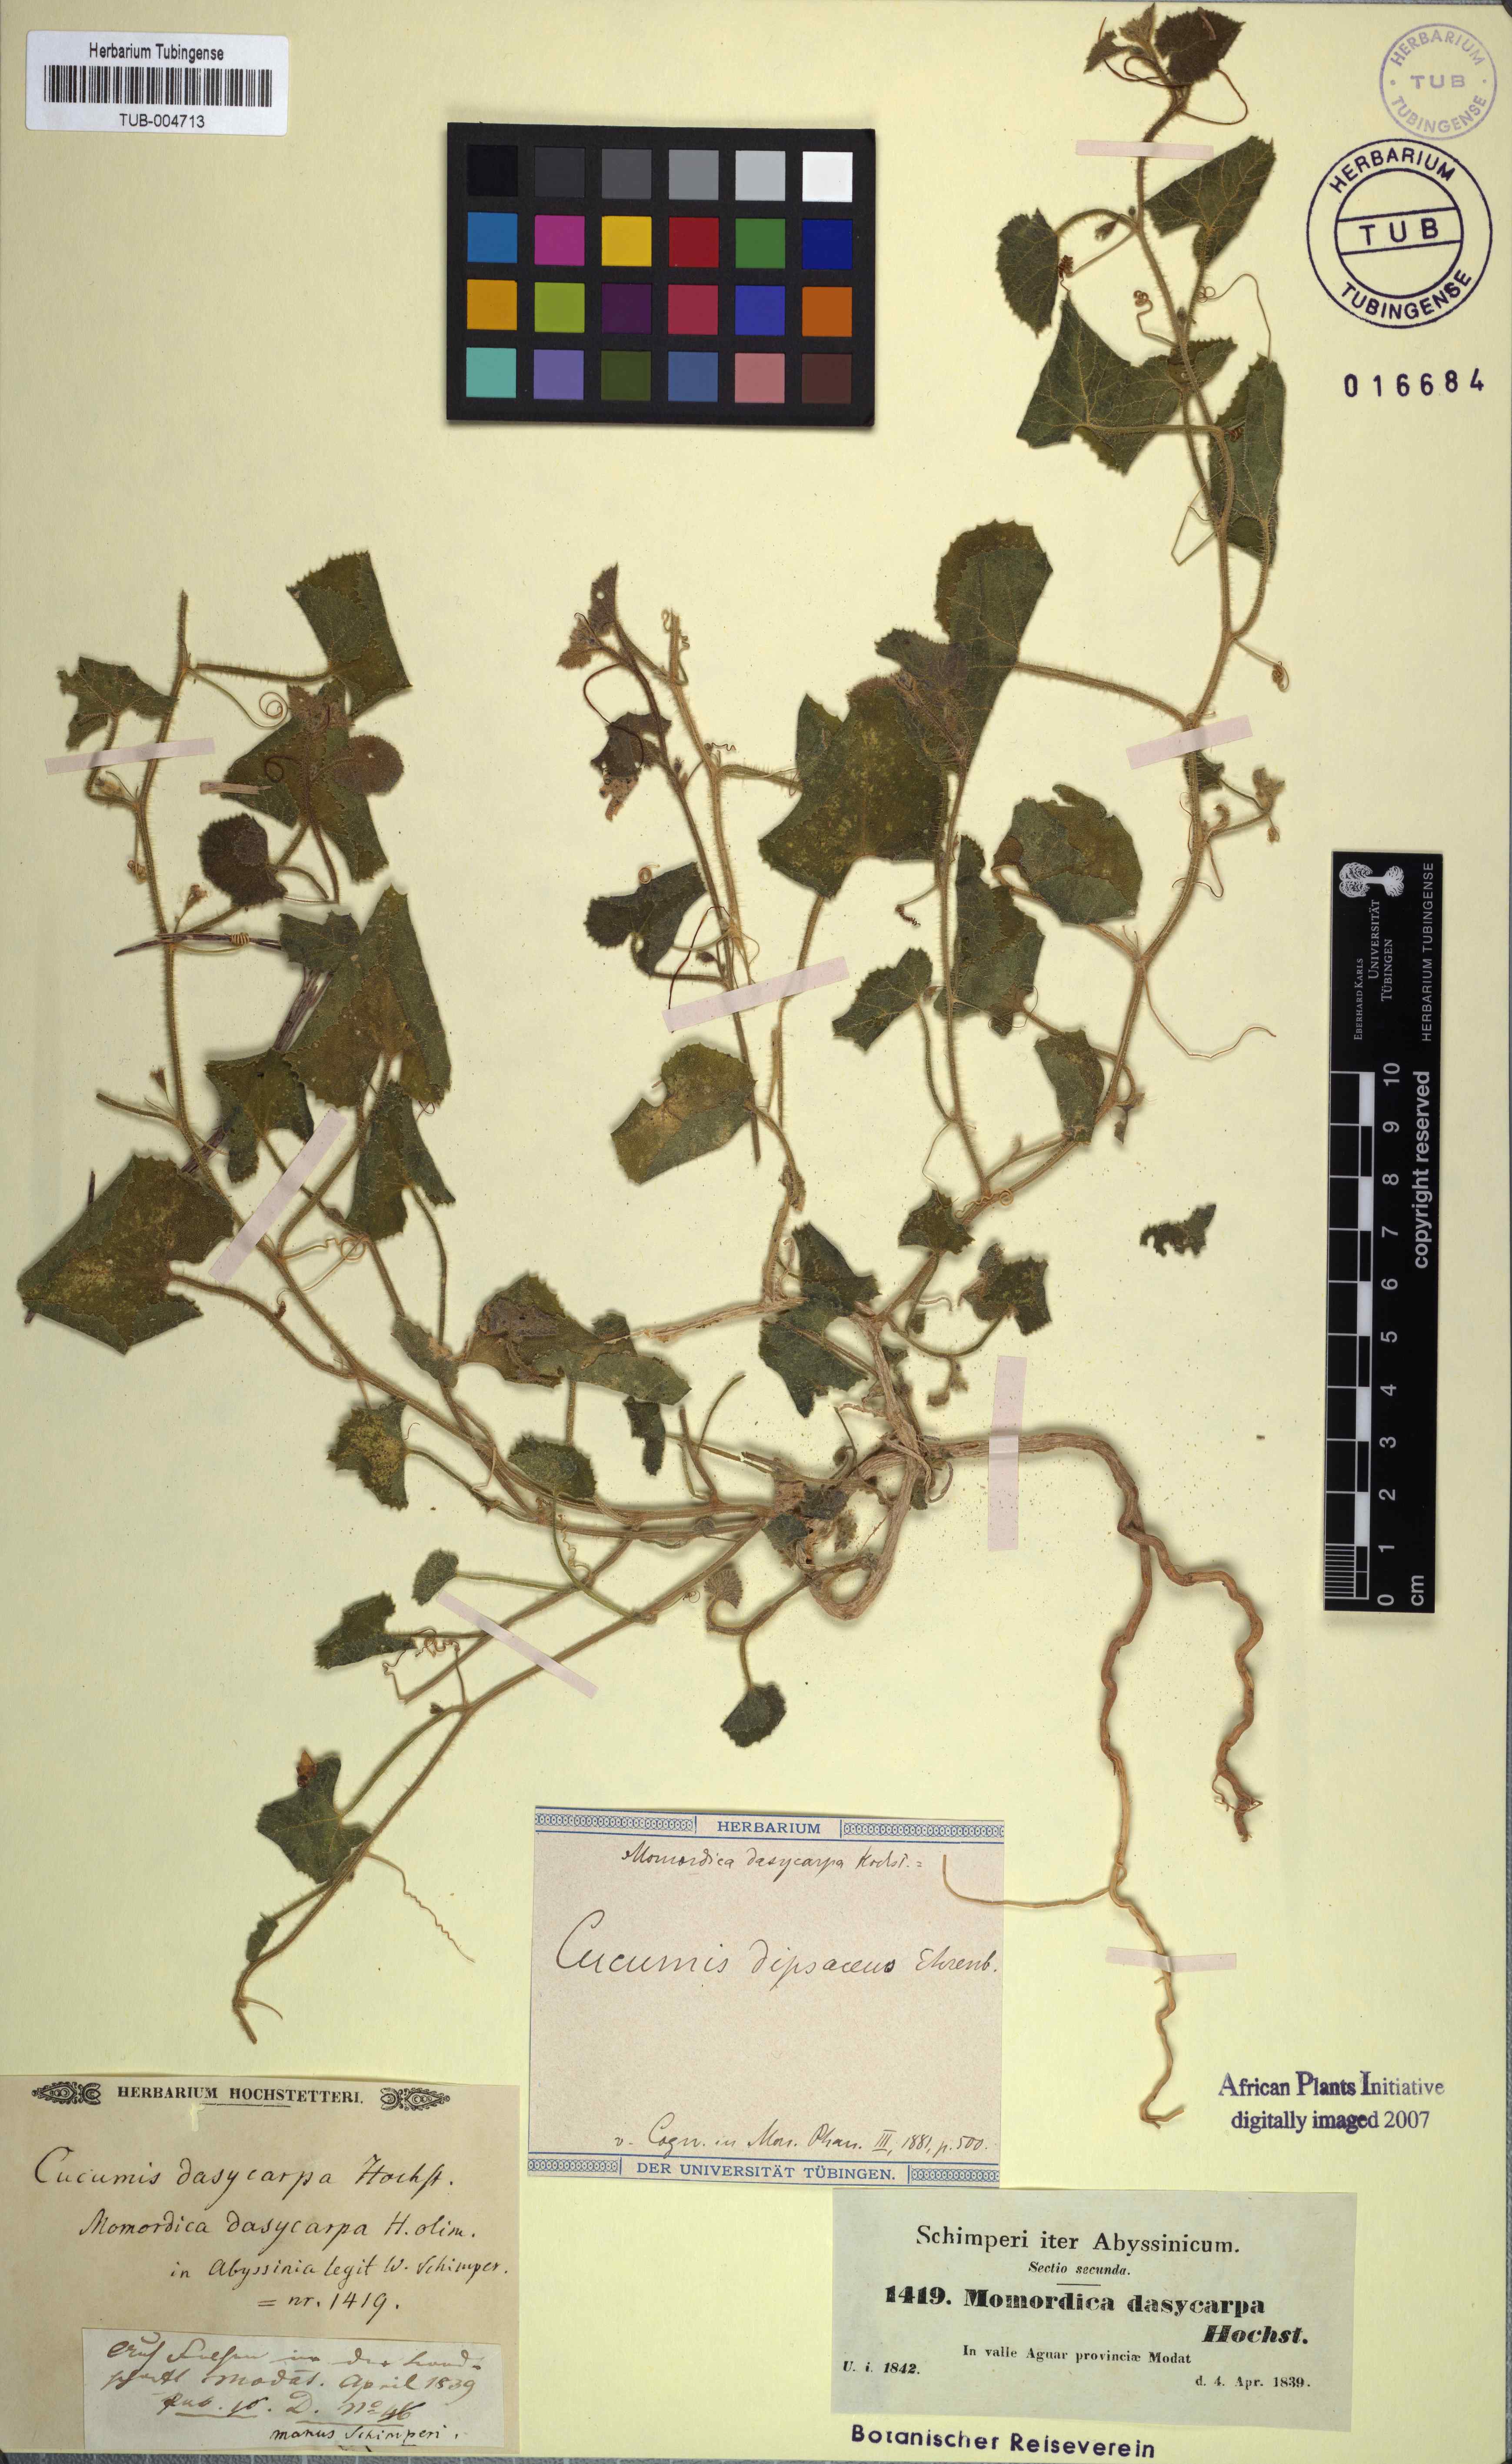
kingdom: Plantae
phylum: Tracheophyta
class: Magnoliopsida
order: Cucurbitales
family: Cucurbitaceae
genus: Cucumis
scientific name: Cucumis dipsaceus
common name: Hedgehog gourd
